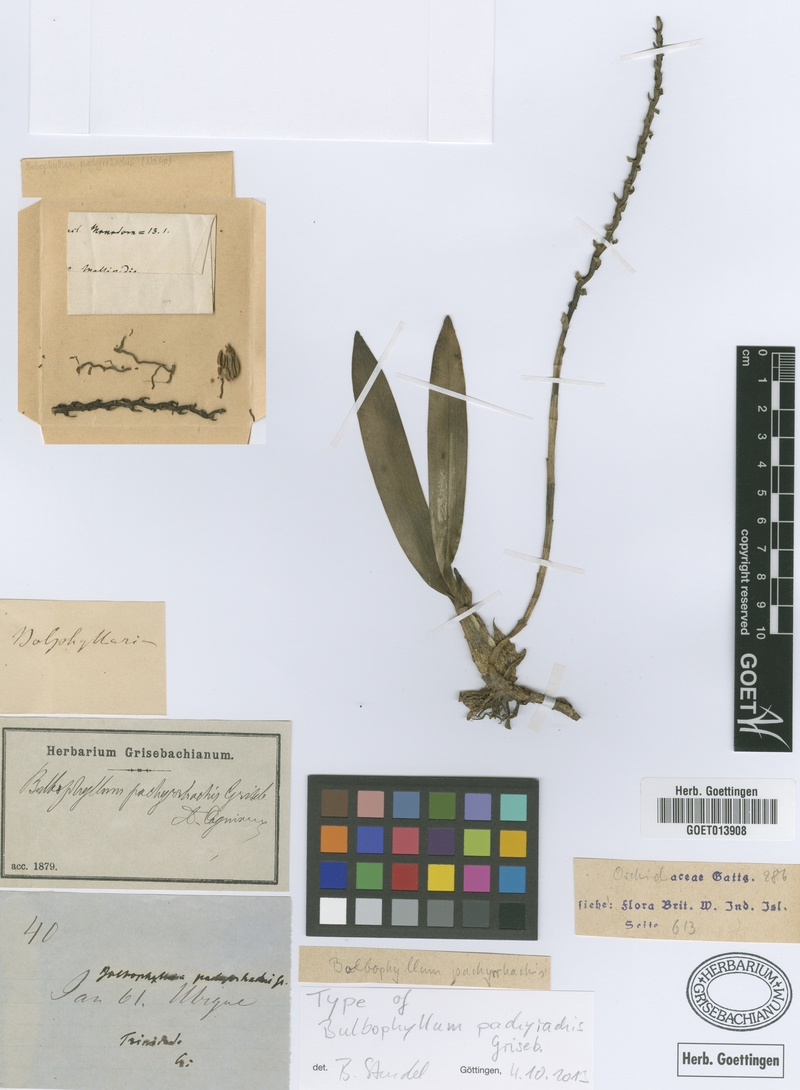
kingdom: Plantae
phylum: Tracheophyta
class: Liliopsida
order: Asparagales
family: Orchidaceae
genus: Bulbophyllum
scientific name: Bulbophyllum pinelianum
